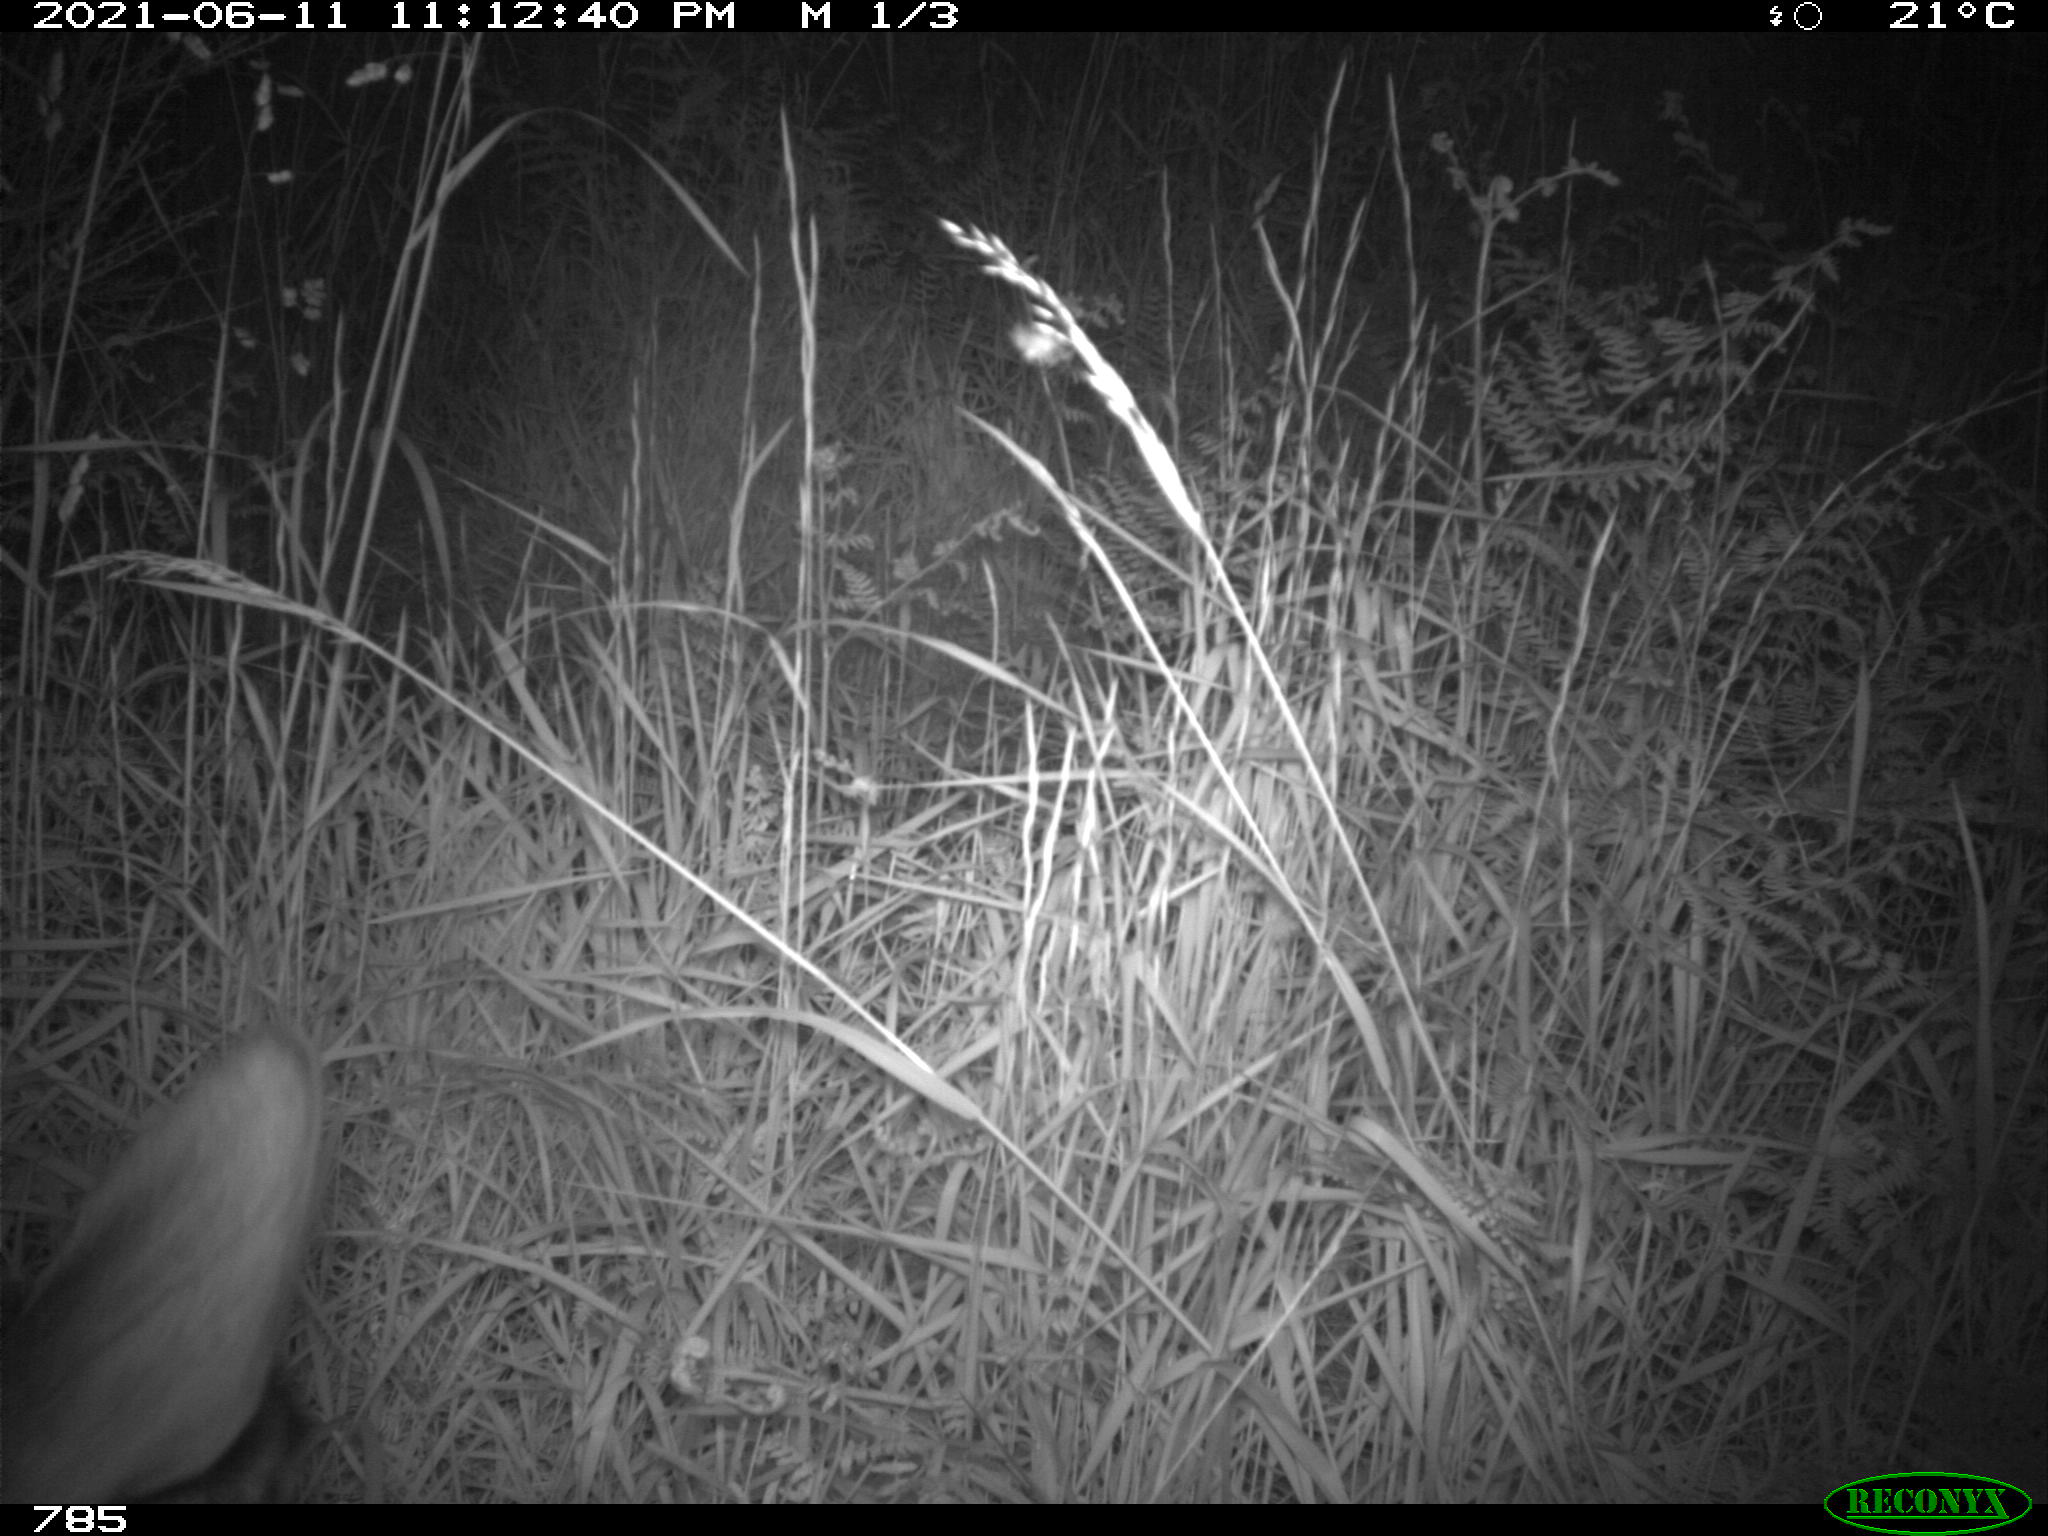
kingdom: Animalia
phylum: Chordata
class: Mammalia
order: Artiodactyla
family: Cervidae
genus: Capreolus
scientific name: Capreolus capreolus
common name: Western roe deer
